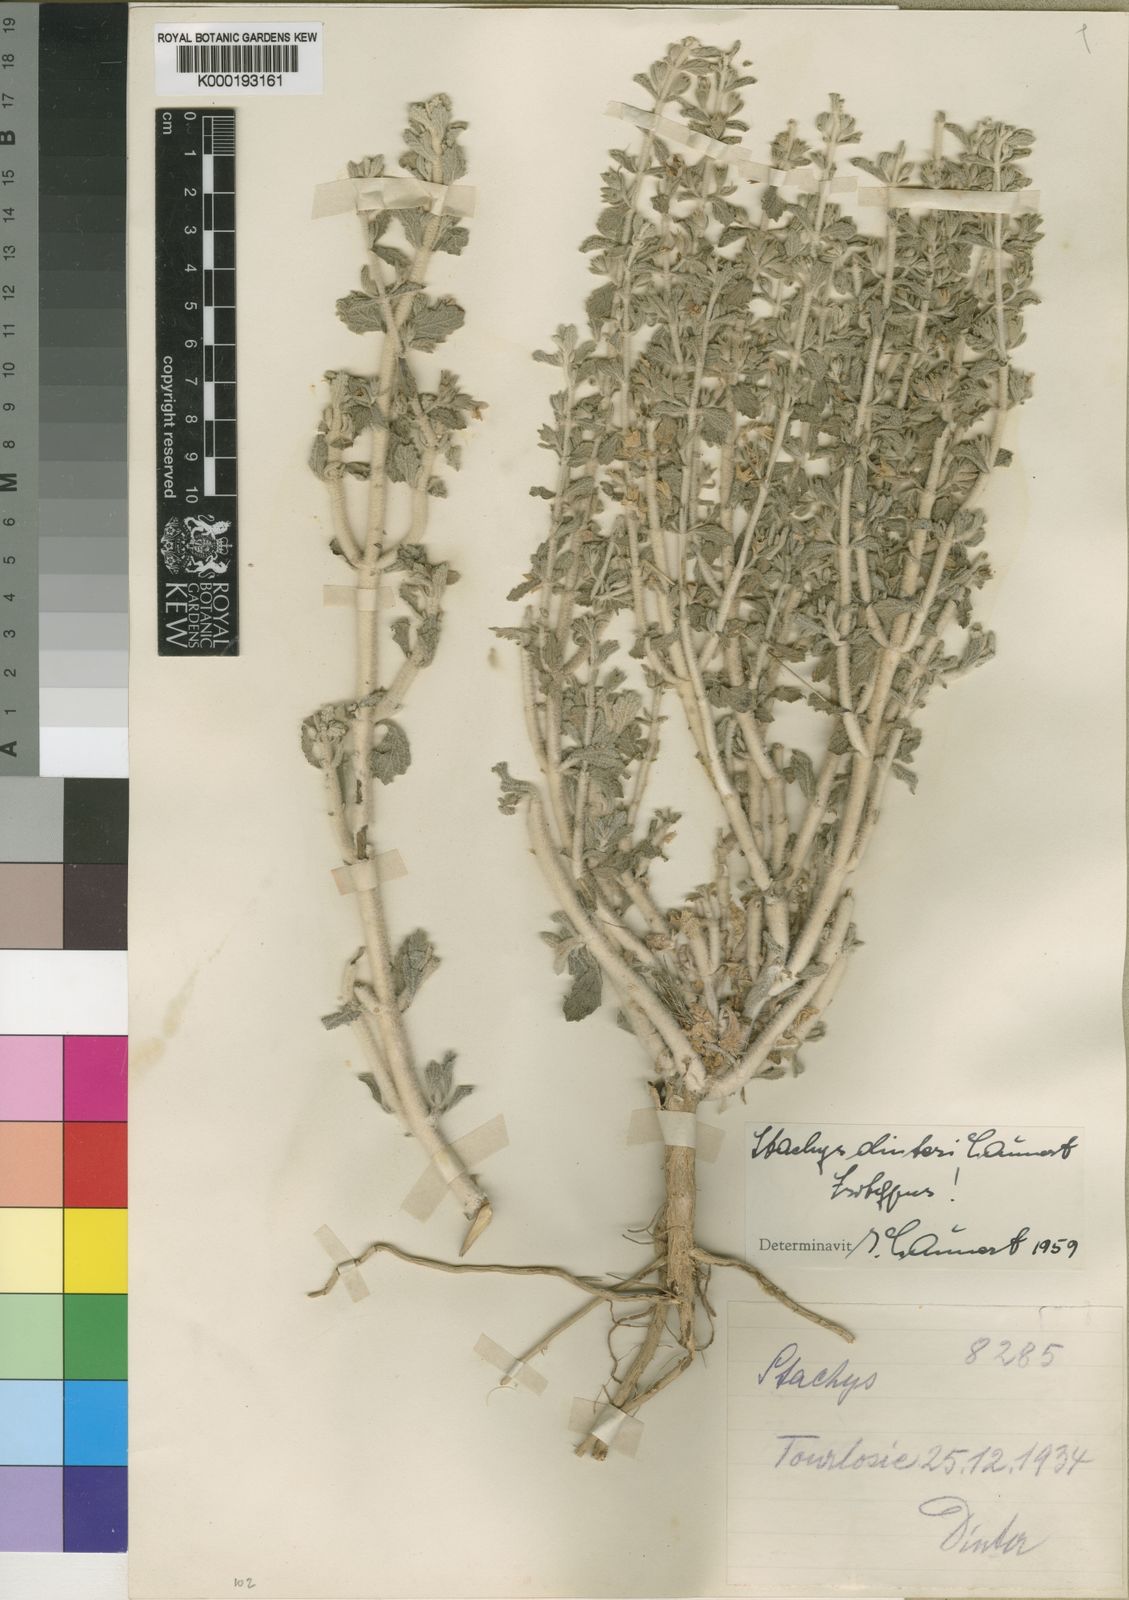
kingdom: Plantae
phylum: Tracheophyta
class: Magnoliopsida
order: Lamiales
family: Lamiaceae
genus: Stachys
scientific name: Stachys dinteri
